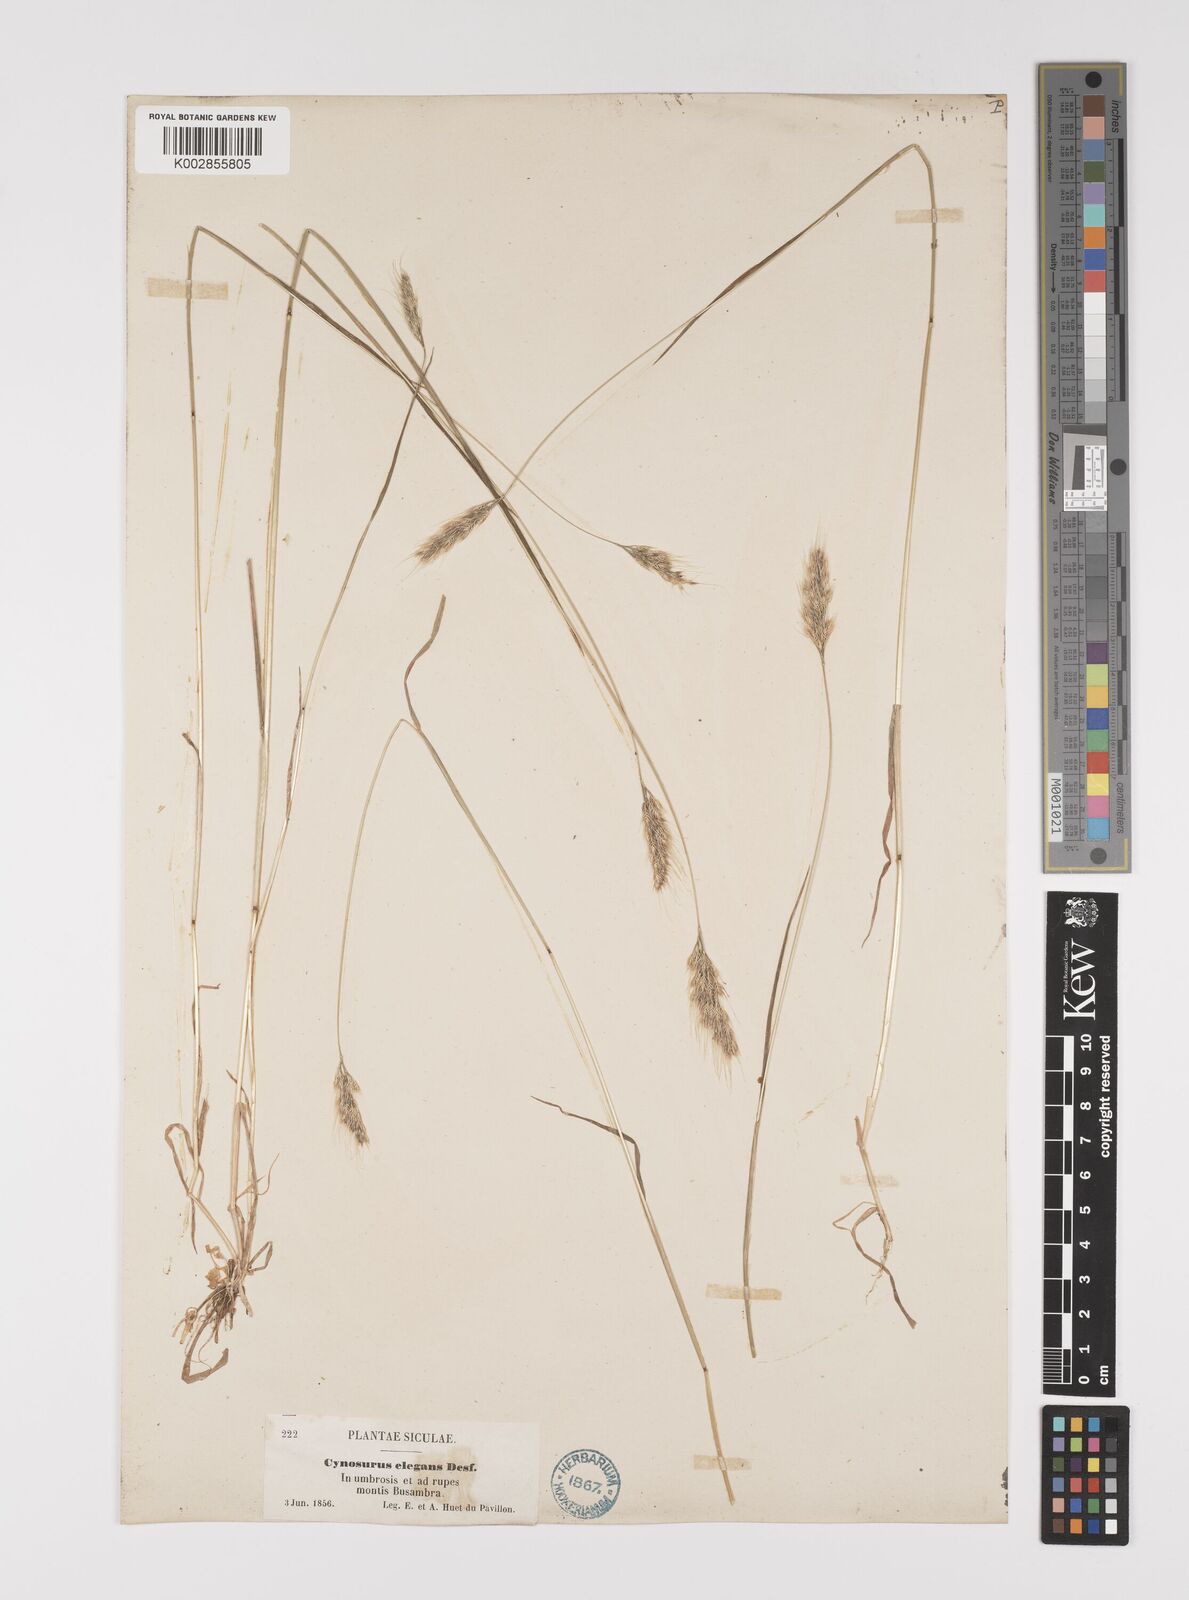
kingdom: Plantae
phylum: Tracheophyta
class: Liliopsida
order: Poales
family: Poaceae
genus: Cynosurus
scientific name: Cynosurus elegans
